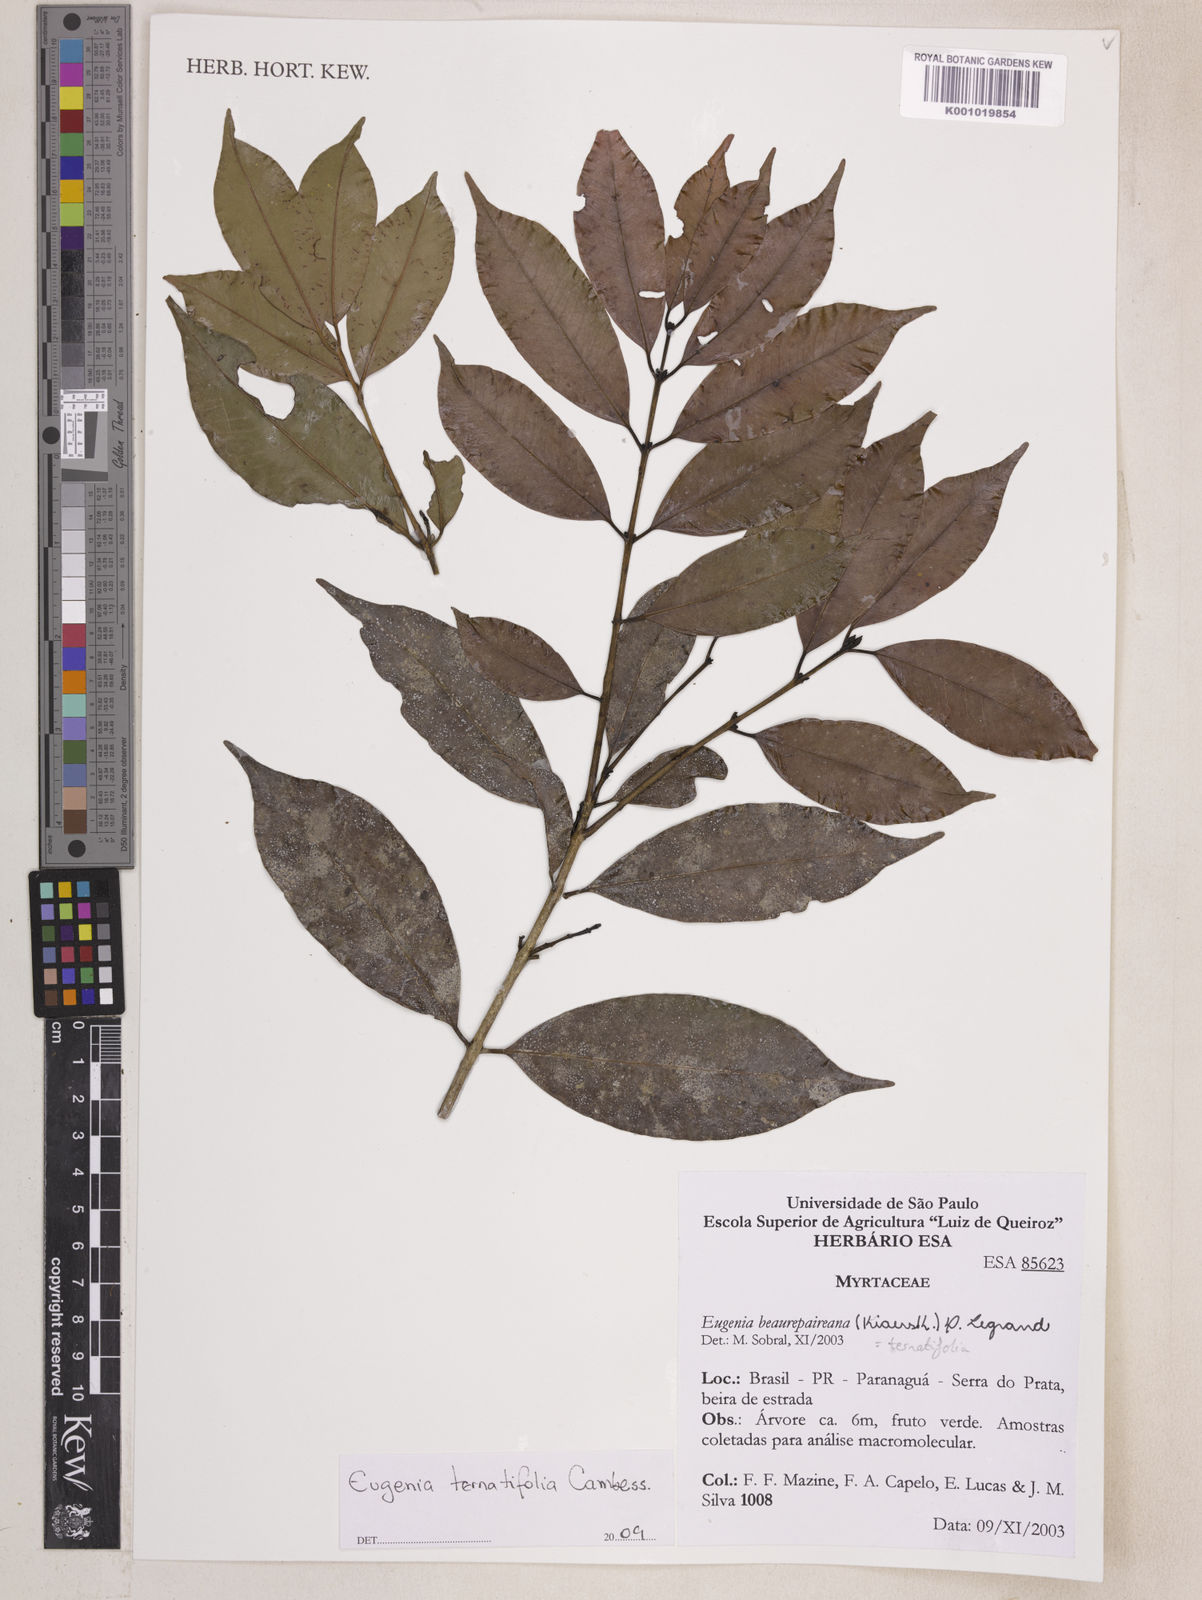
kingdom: Plantae
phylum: Tracheophyta
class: Magnoliopsida
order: Myrtales
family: Myrtaceae
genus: Eugenia
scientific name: Eugenia ternatifolia
